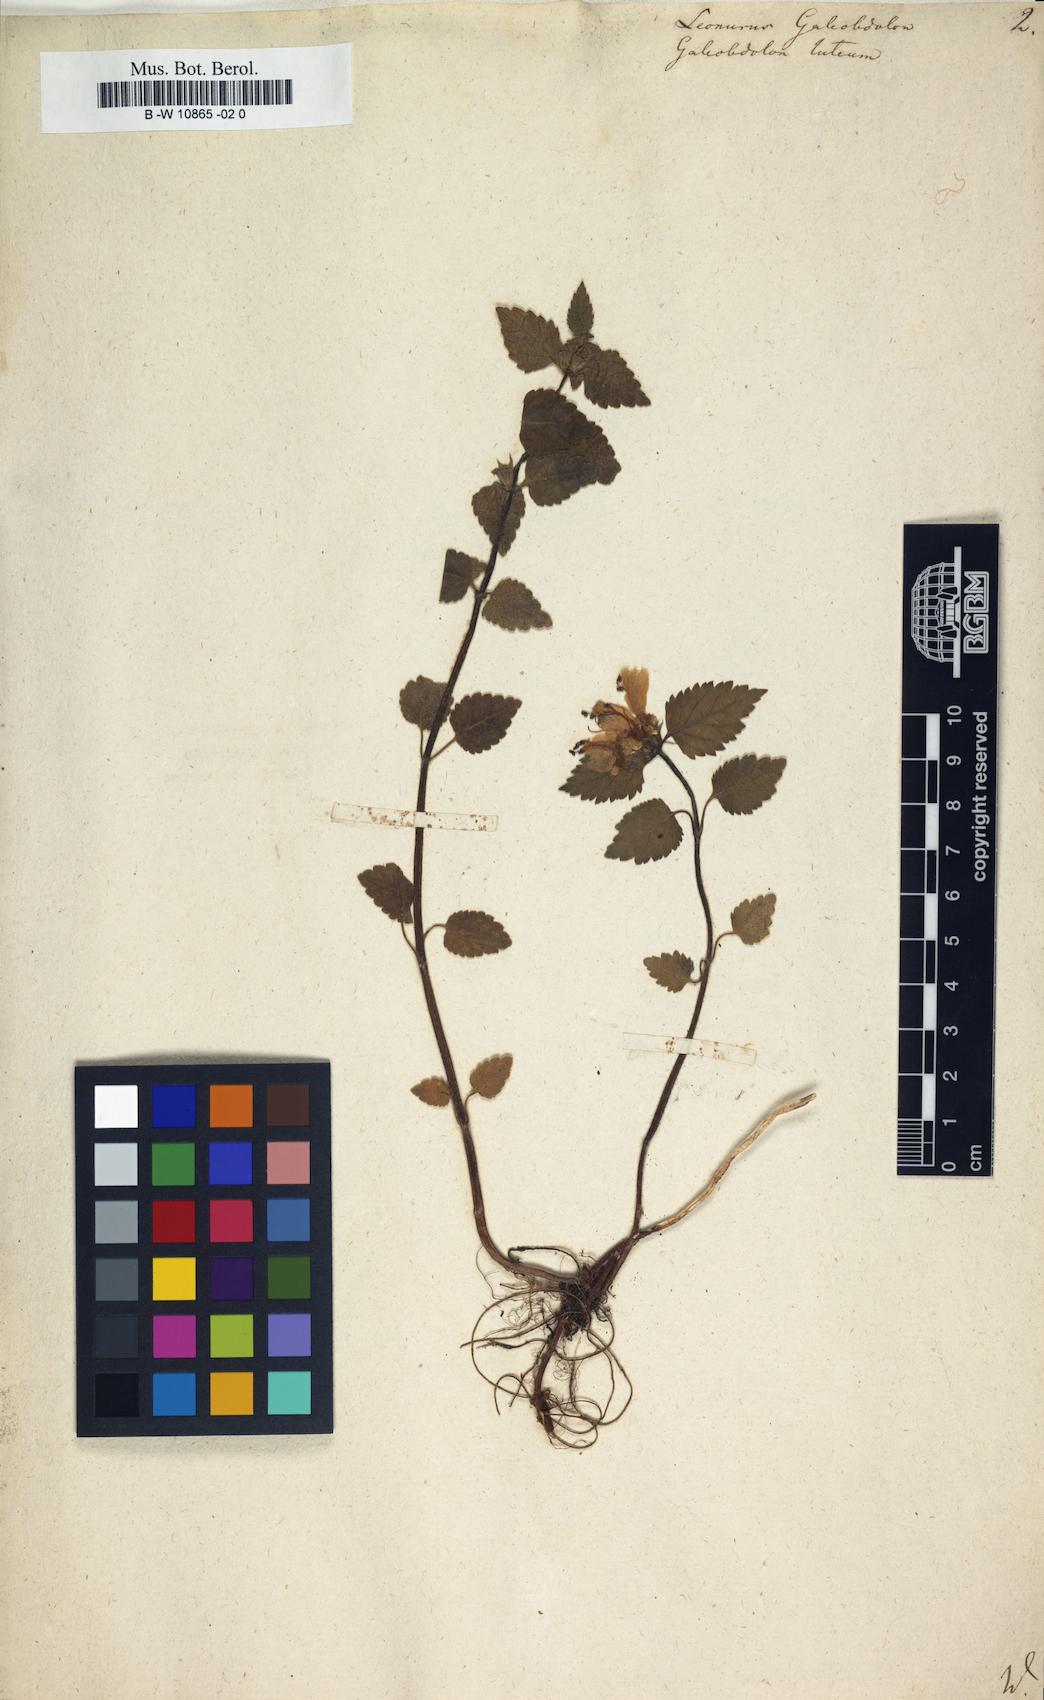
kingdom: Plantae
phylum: Tracheophyta
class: Magnoliopsida
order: Lamiales
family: Lamiaceae
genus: Lamium
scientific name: Lamium galeobdolon
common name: Yellow archangel
